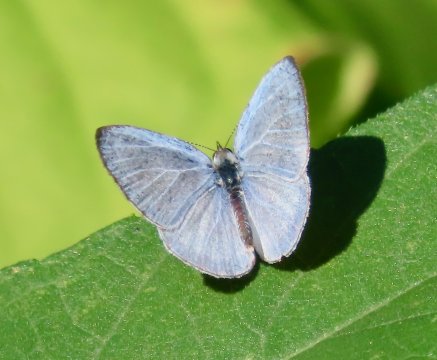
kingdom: Animalia
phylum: Arthropoda
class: Insecta
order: Lepidoptera
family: Lycaenidae
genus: Cyaniris
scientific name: Cyaniris neglecta
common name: Summer Azure
